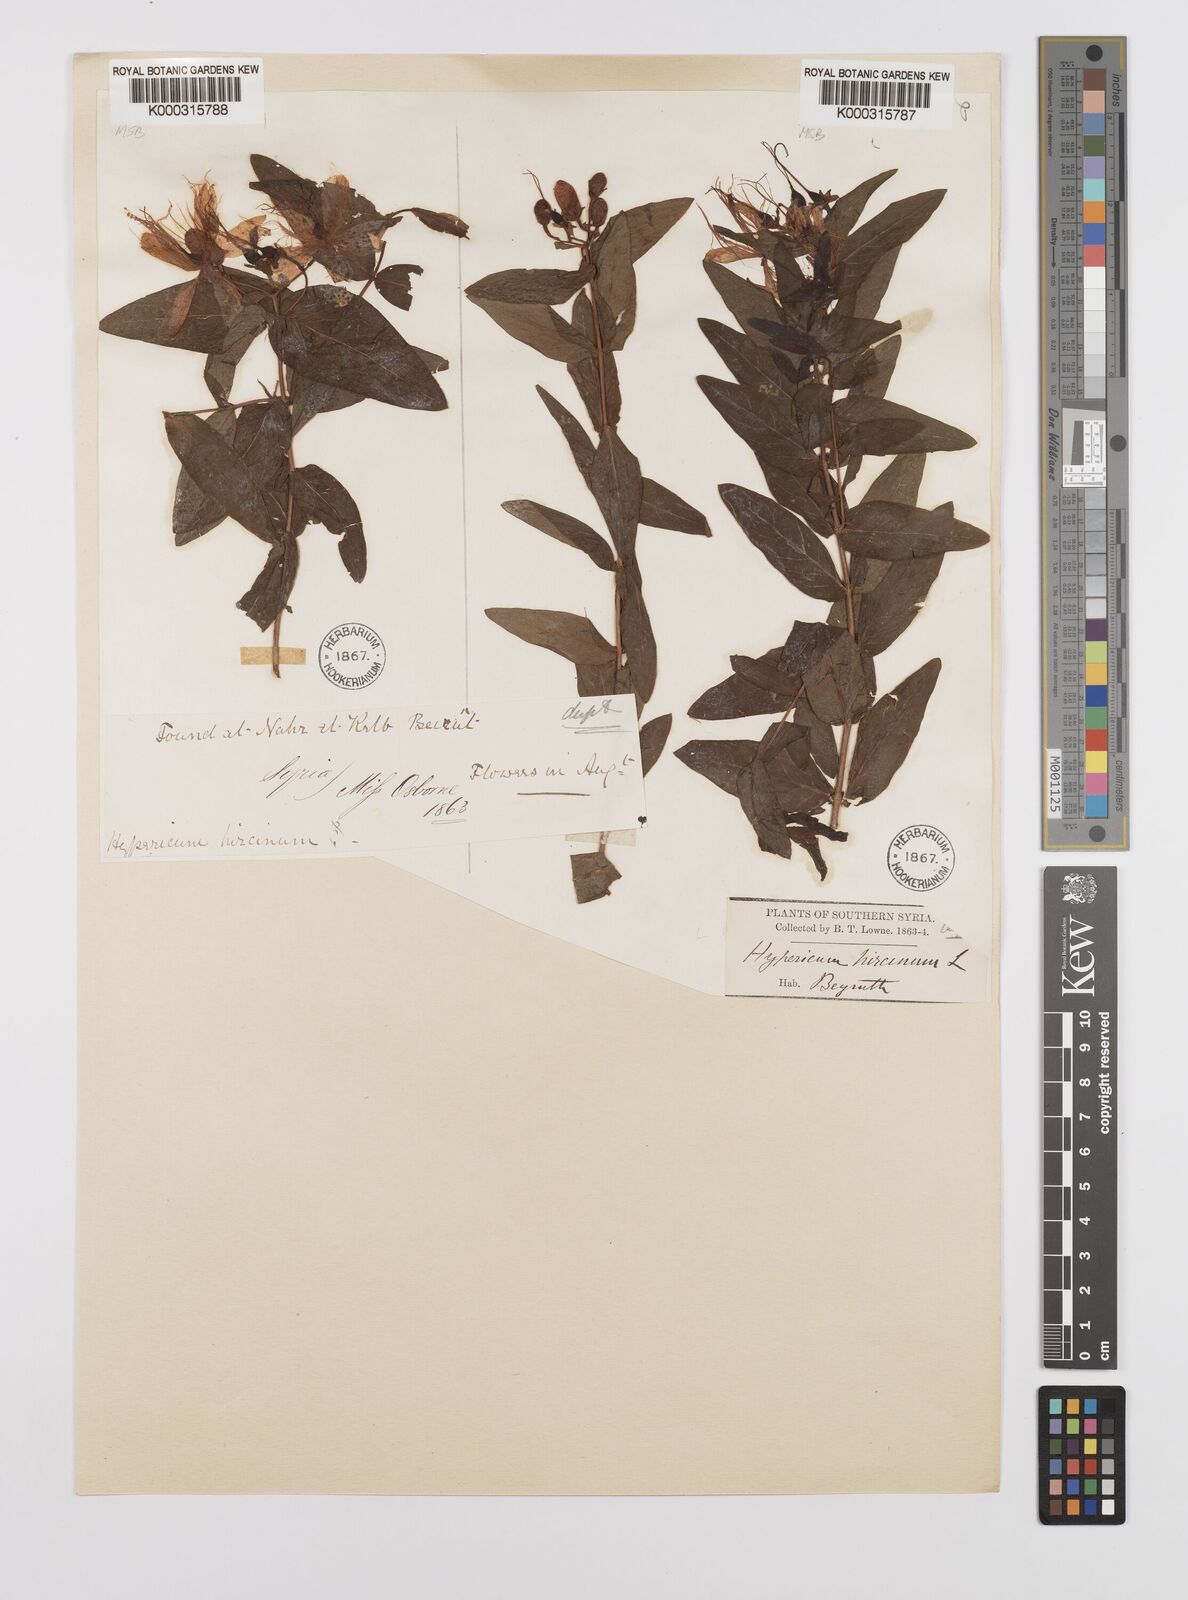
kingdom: Plantae
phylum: Tracheophyta
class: Magnoliopsida
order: Malpighiales
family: Hypericaceae
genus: Hypericum
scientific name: Hypericum hircinum
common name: Stinking tutsan
